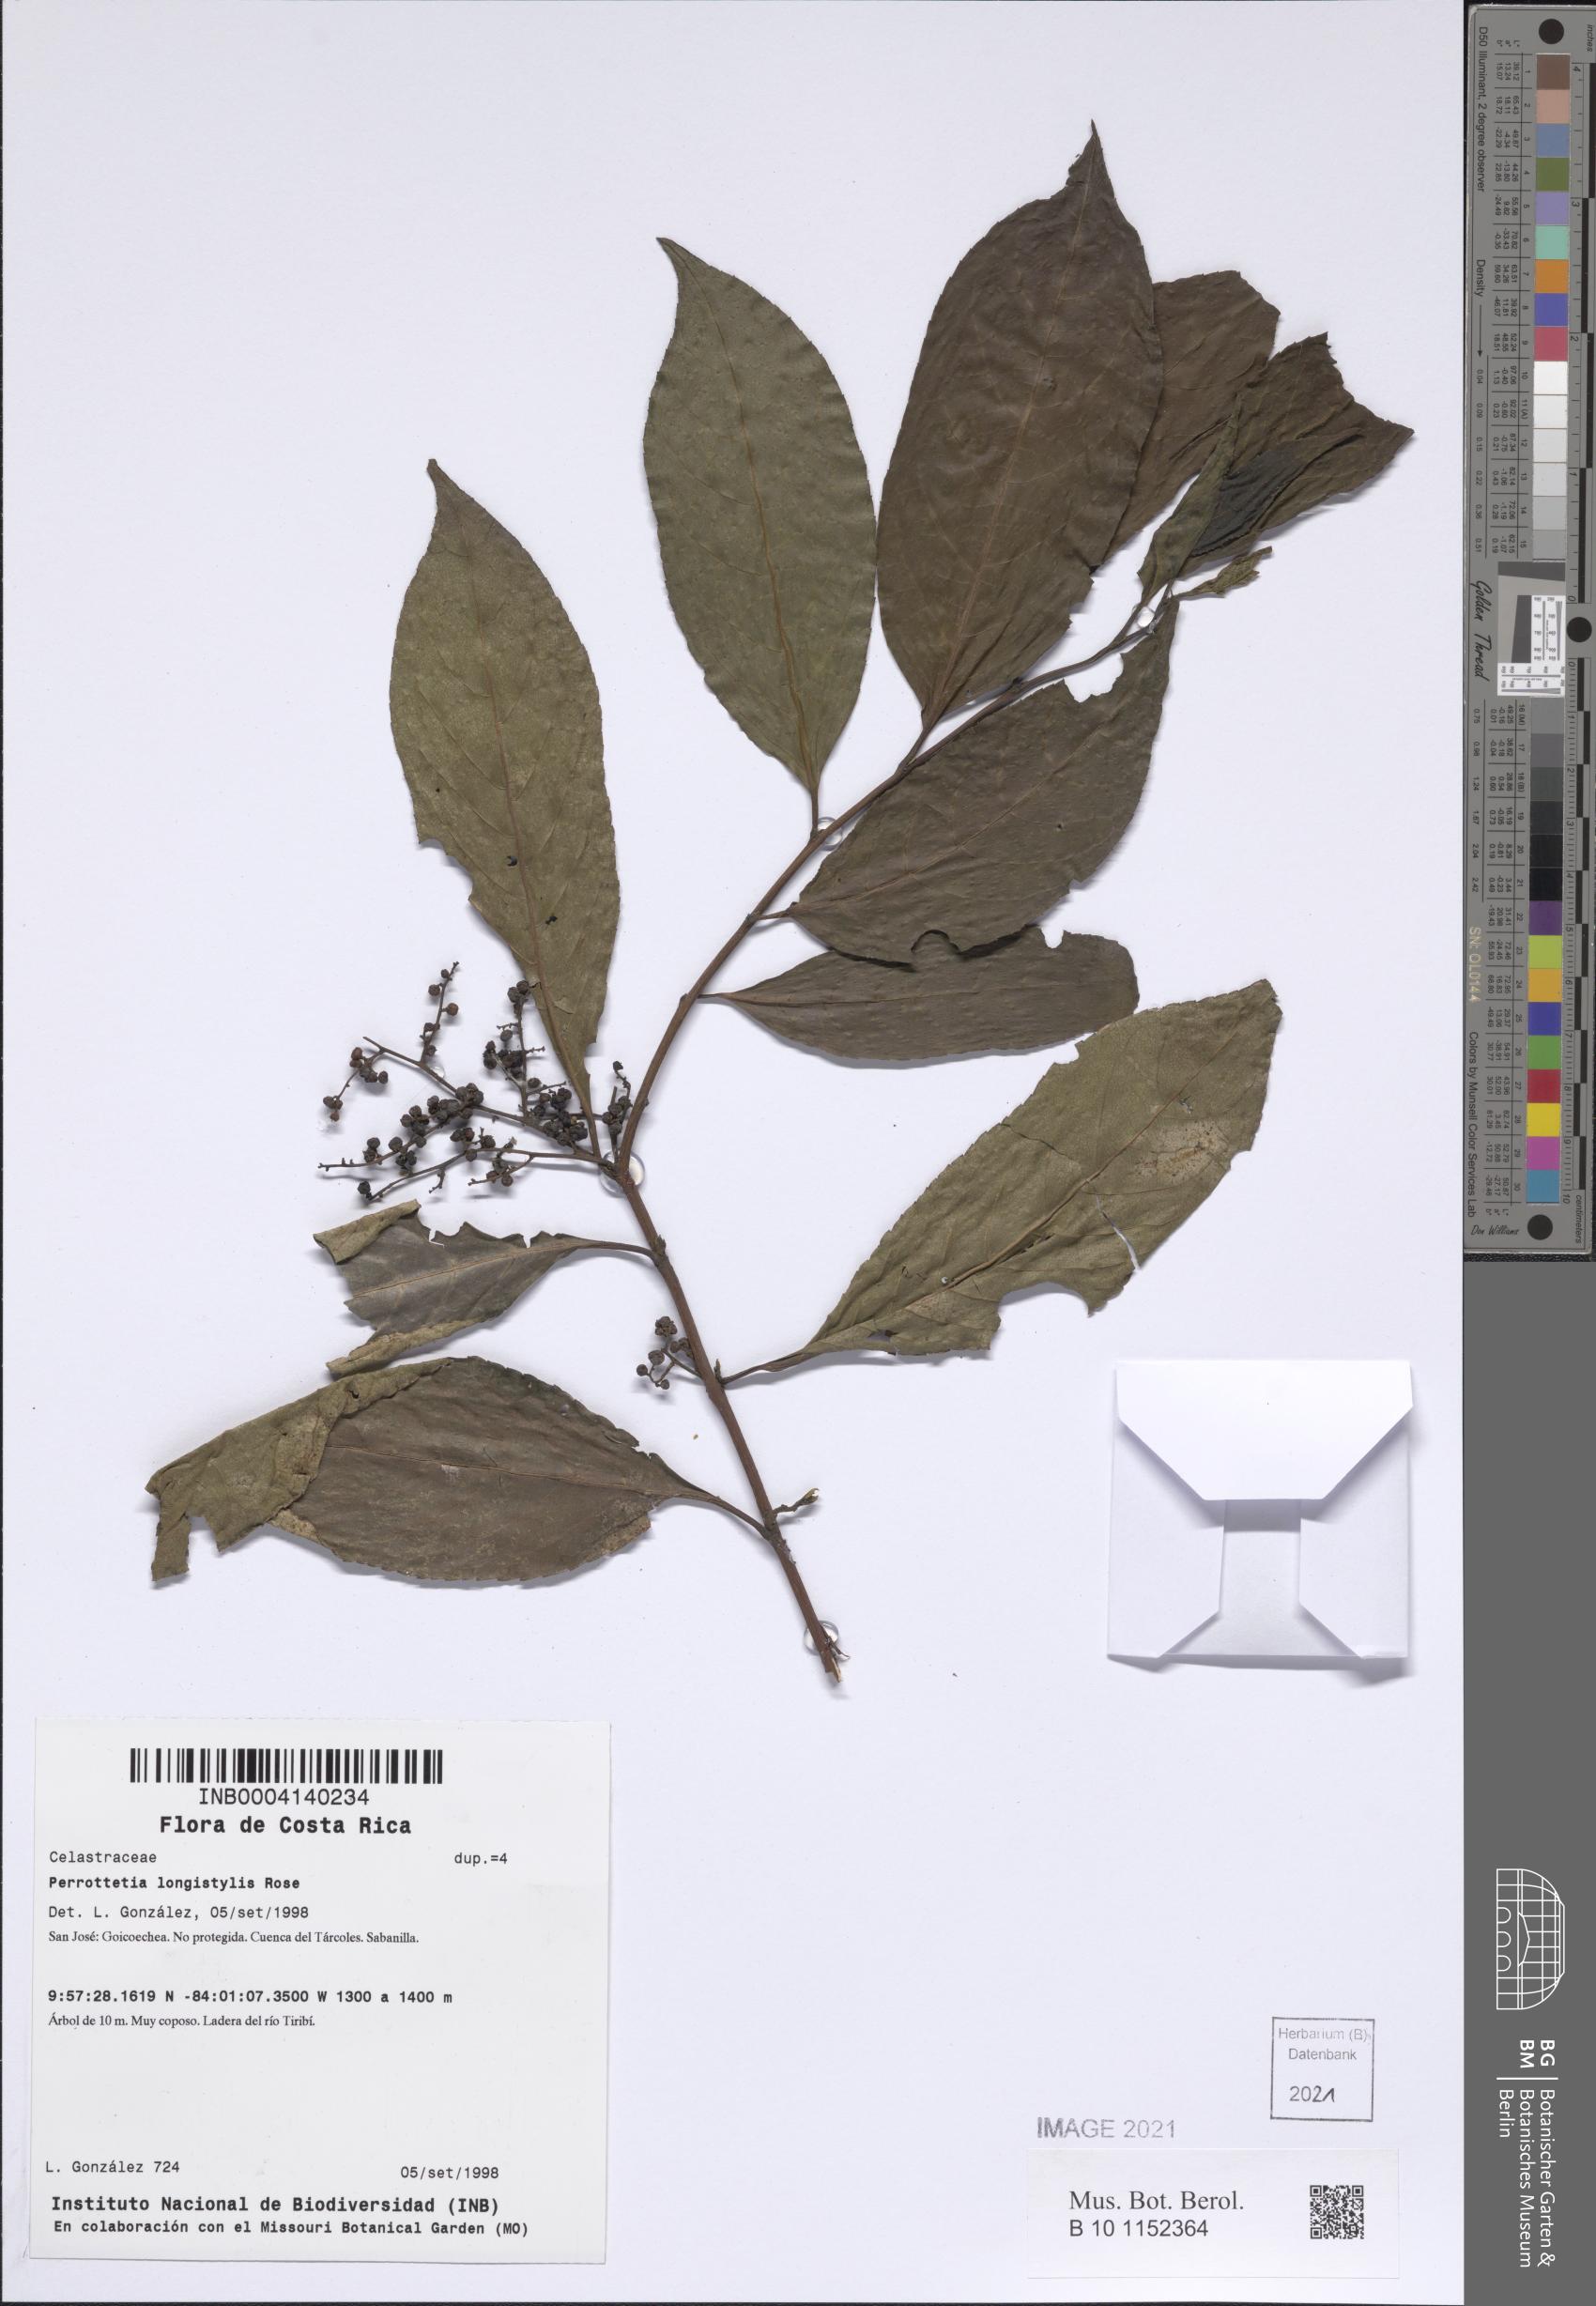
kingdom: Plantae
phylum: Tracheophyta
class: Magnoliopsida
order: Huerteales
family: Dipentodontaceae
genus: Perrottetia
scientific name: Perrottetia longistylis
